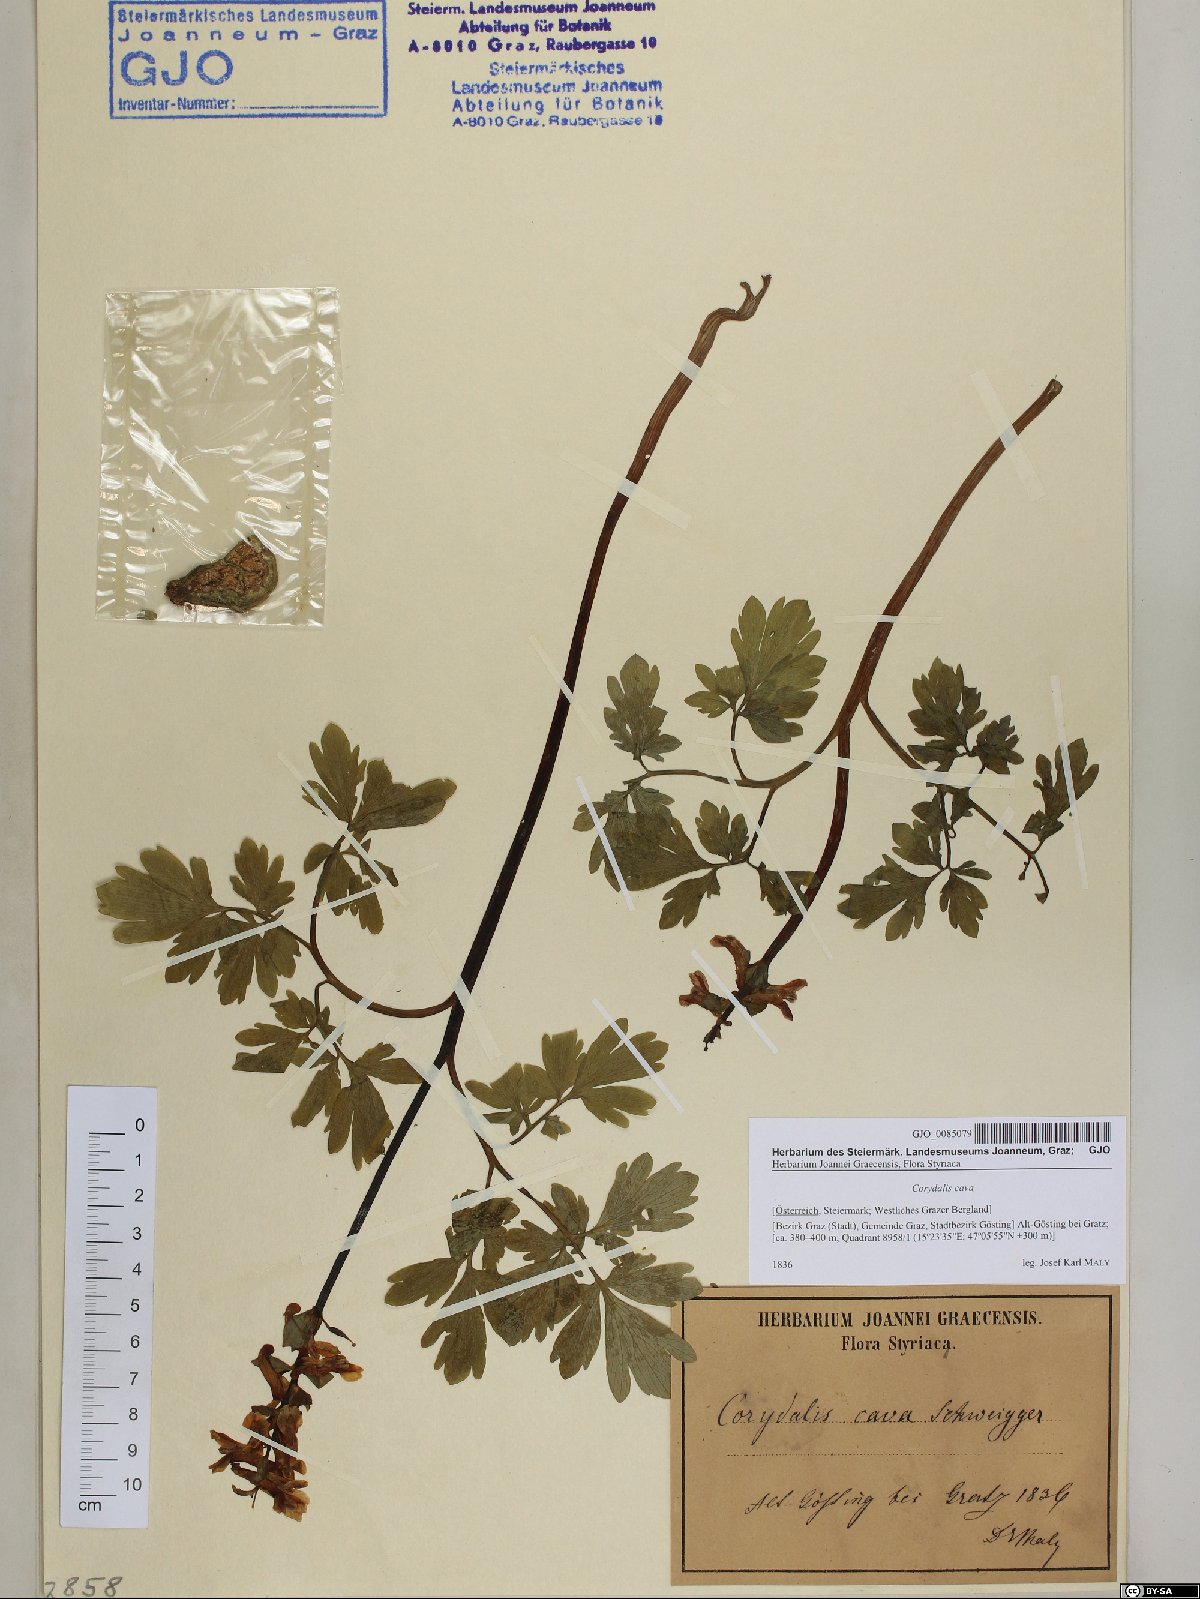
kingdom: Plantae
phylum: Tracheophyta
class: Magnoliopsida
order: Ranunculales
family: Papaveraceae
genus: Corydalis
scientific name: Corydalis cava
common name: Hollowroot
